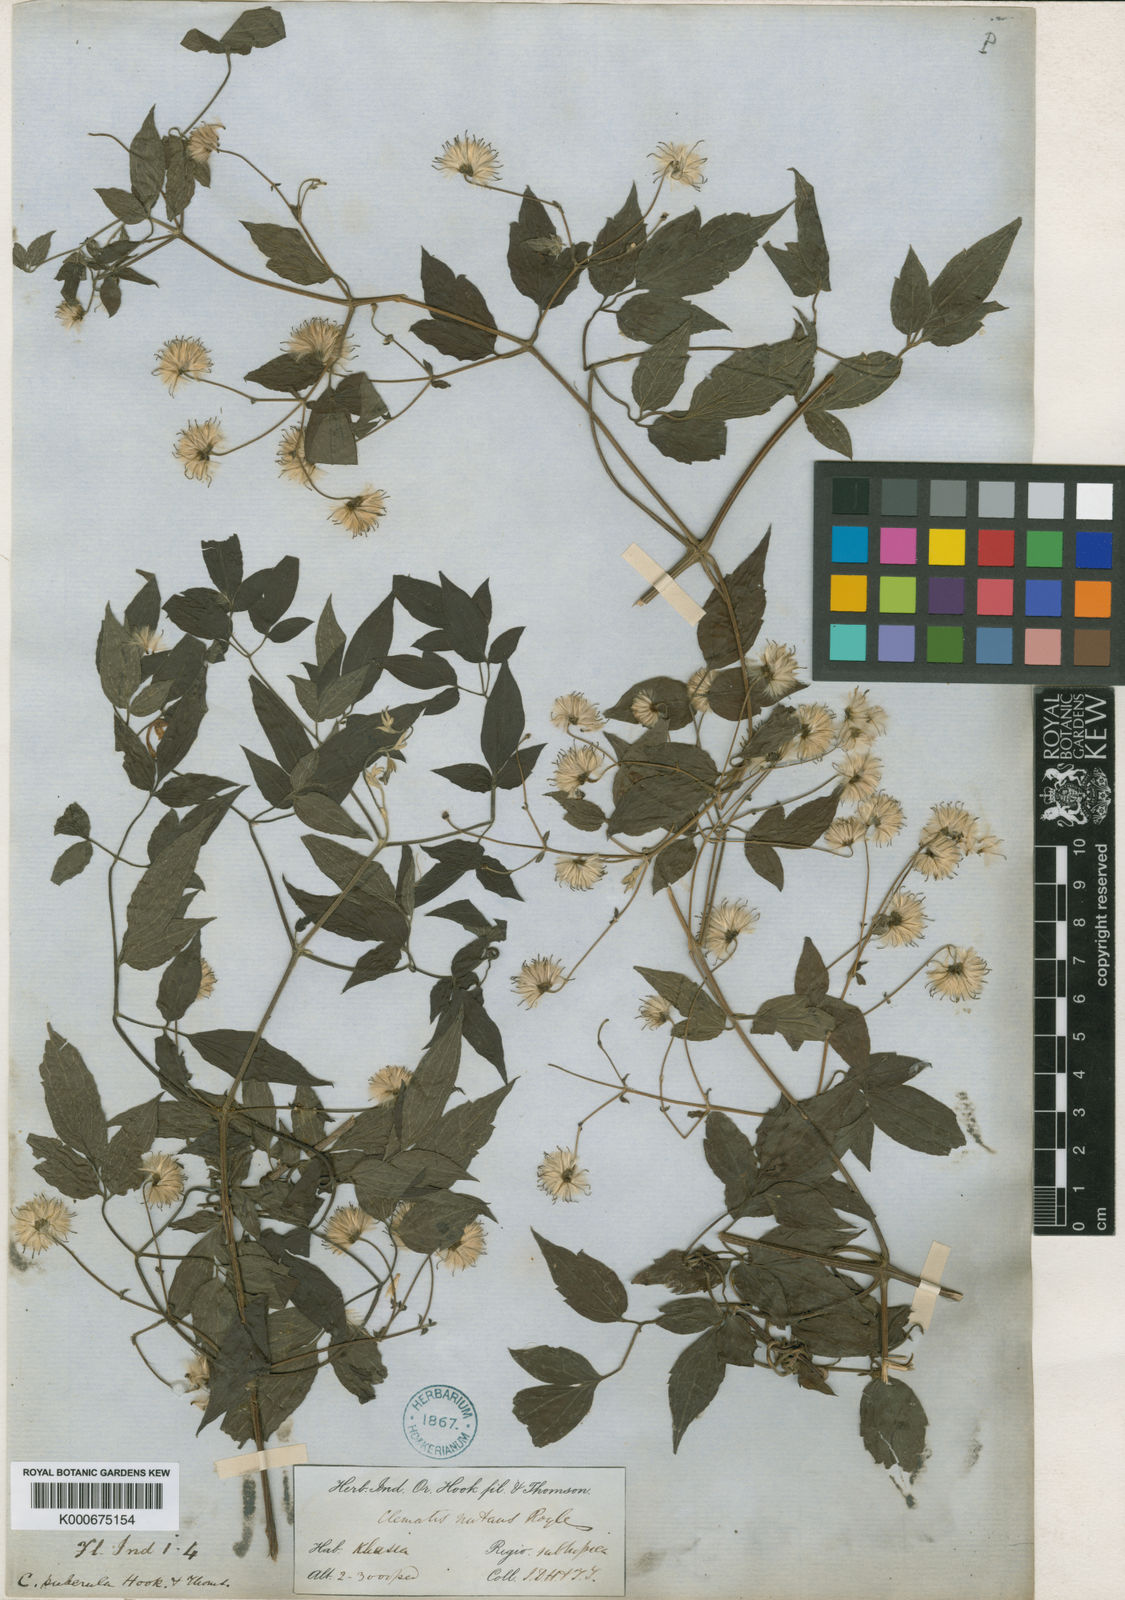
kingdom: Plantae
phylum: Tracheophyta
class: Magnoliopsida
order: Ranunculales
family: Ranunculaceae
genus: Clematis
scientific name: Clematis puberula
